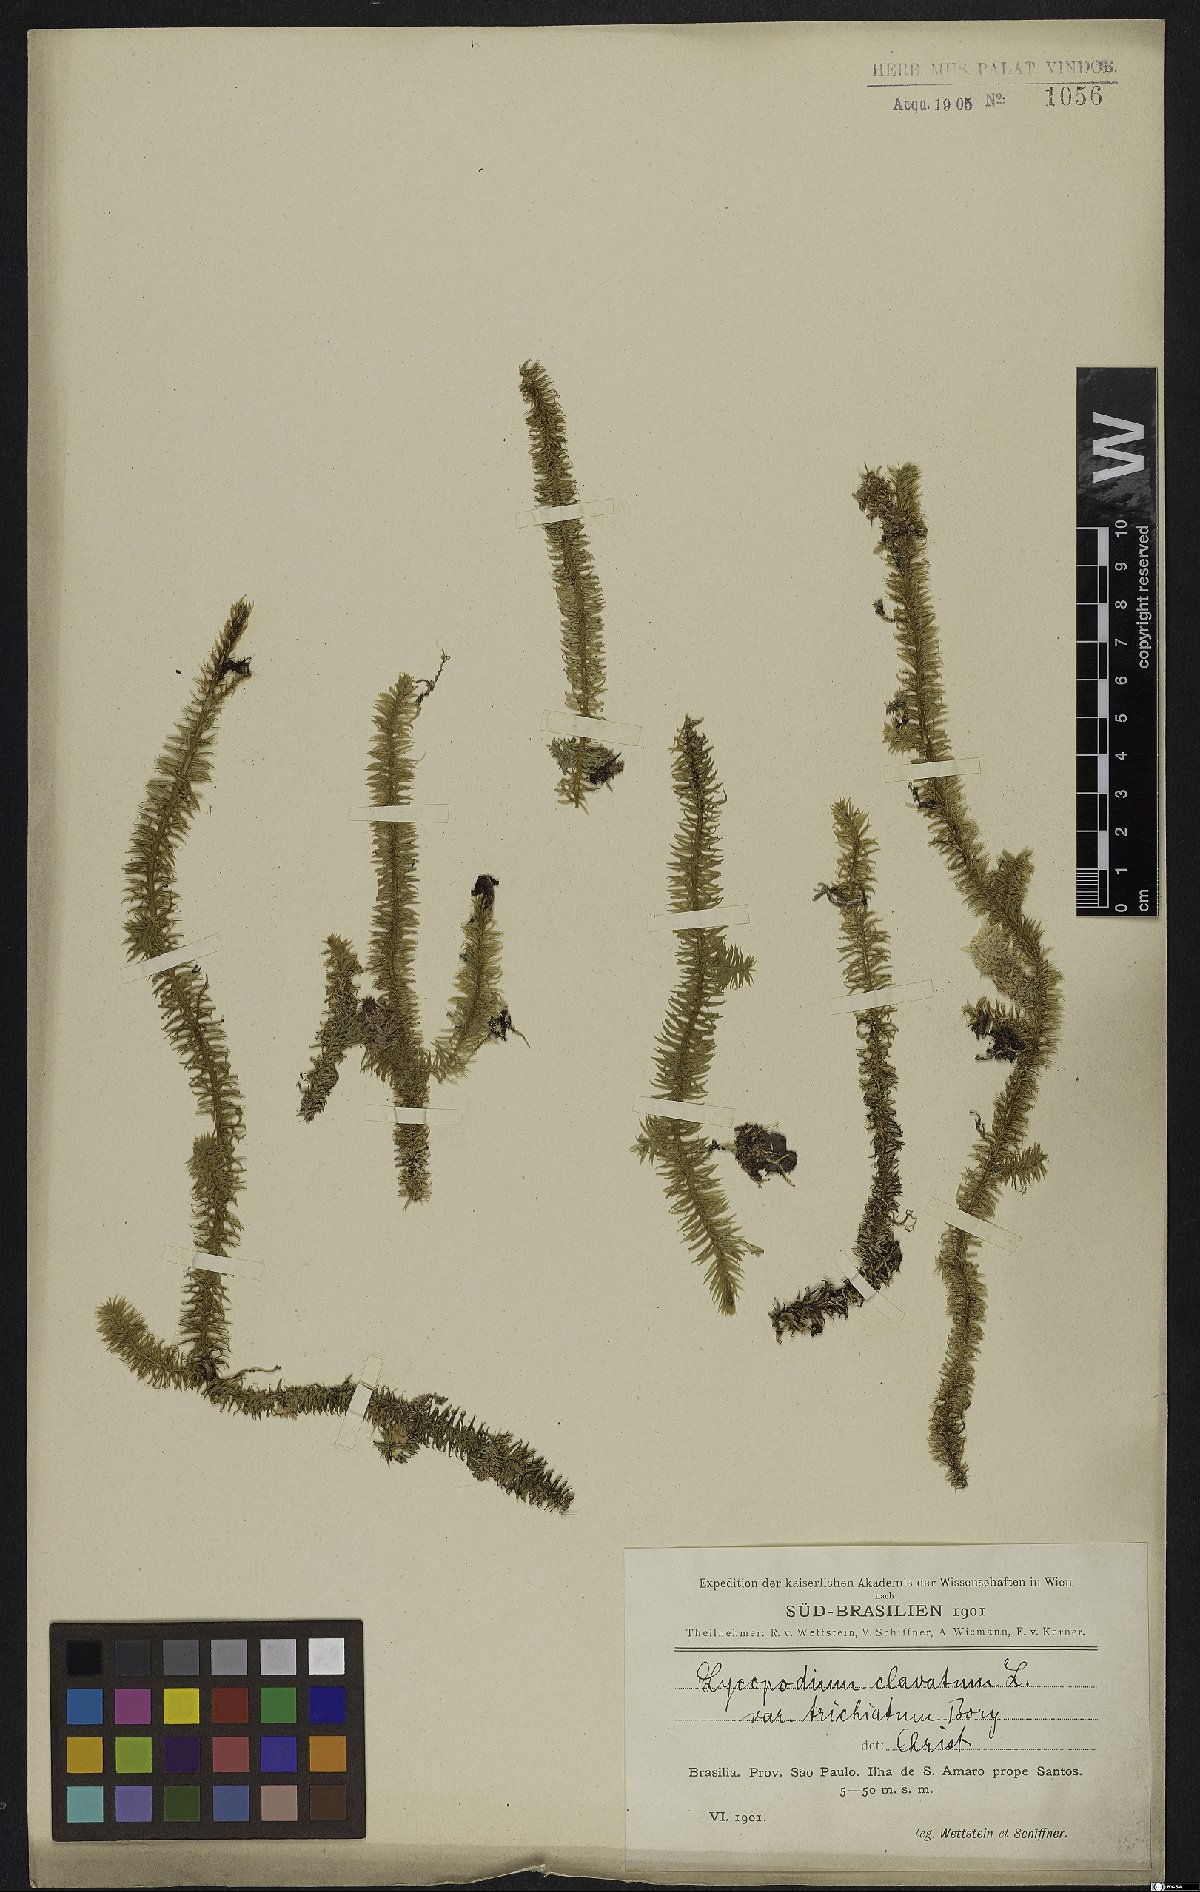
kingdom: Plantae
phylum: Tracheophyta
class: Lycopodiopsida
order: Lycopodiales
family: Lycopodiaceae
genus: Lycopodium
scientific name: Lycopodium clavatum
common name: Stag's-horn clubmoss
